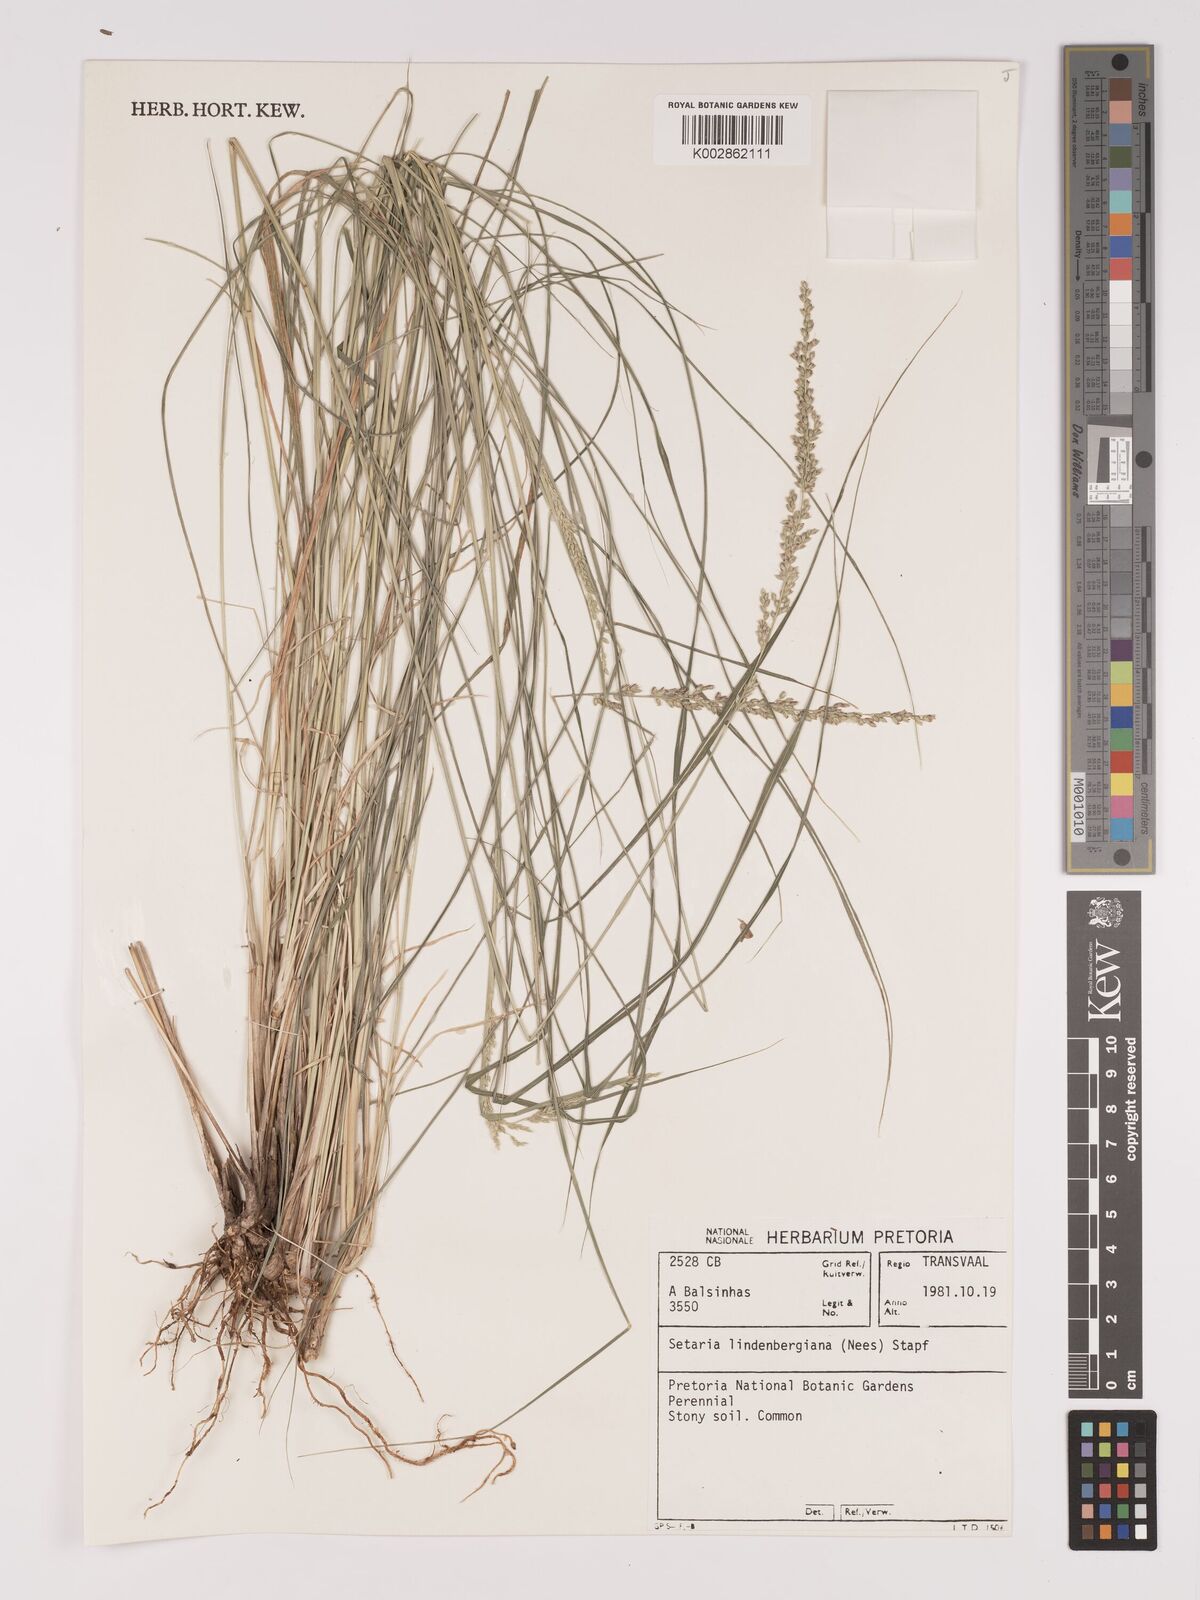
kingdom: Plantae
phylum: Tracheophyta
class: Liliopsida
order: Poales
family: Poaceae
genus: Setaria
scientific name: Setaria lindenbergiana
